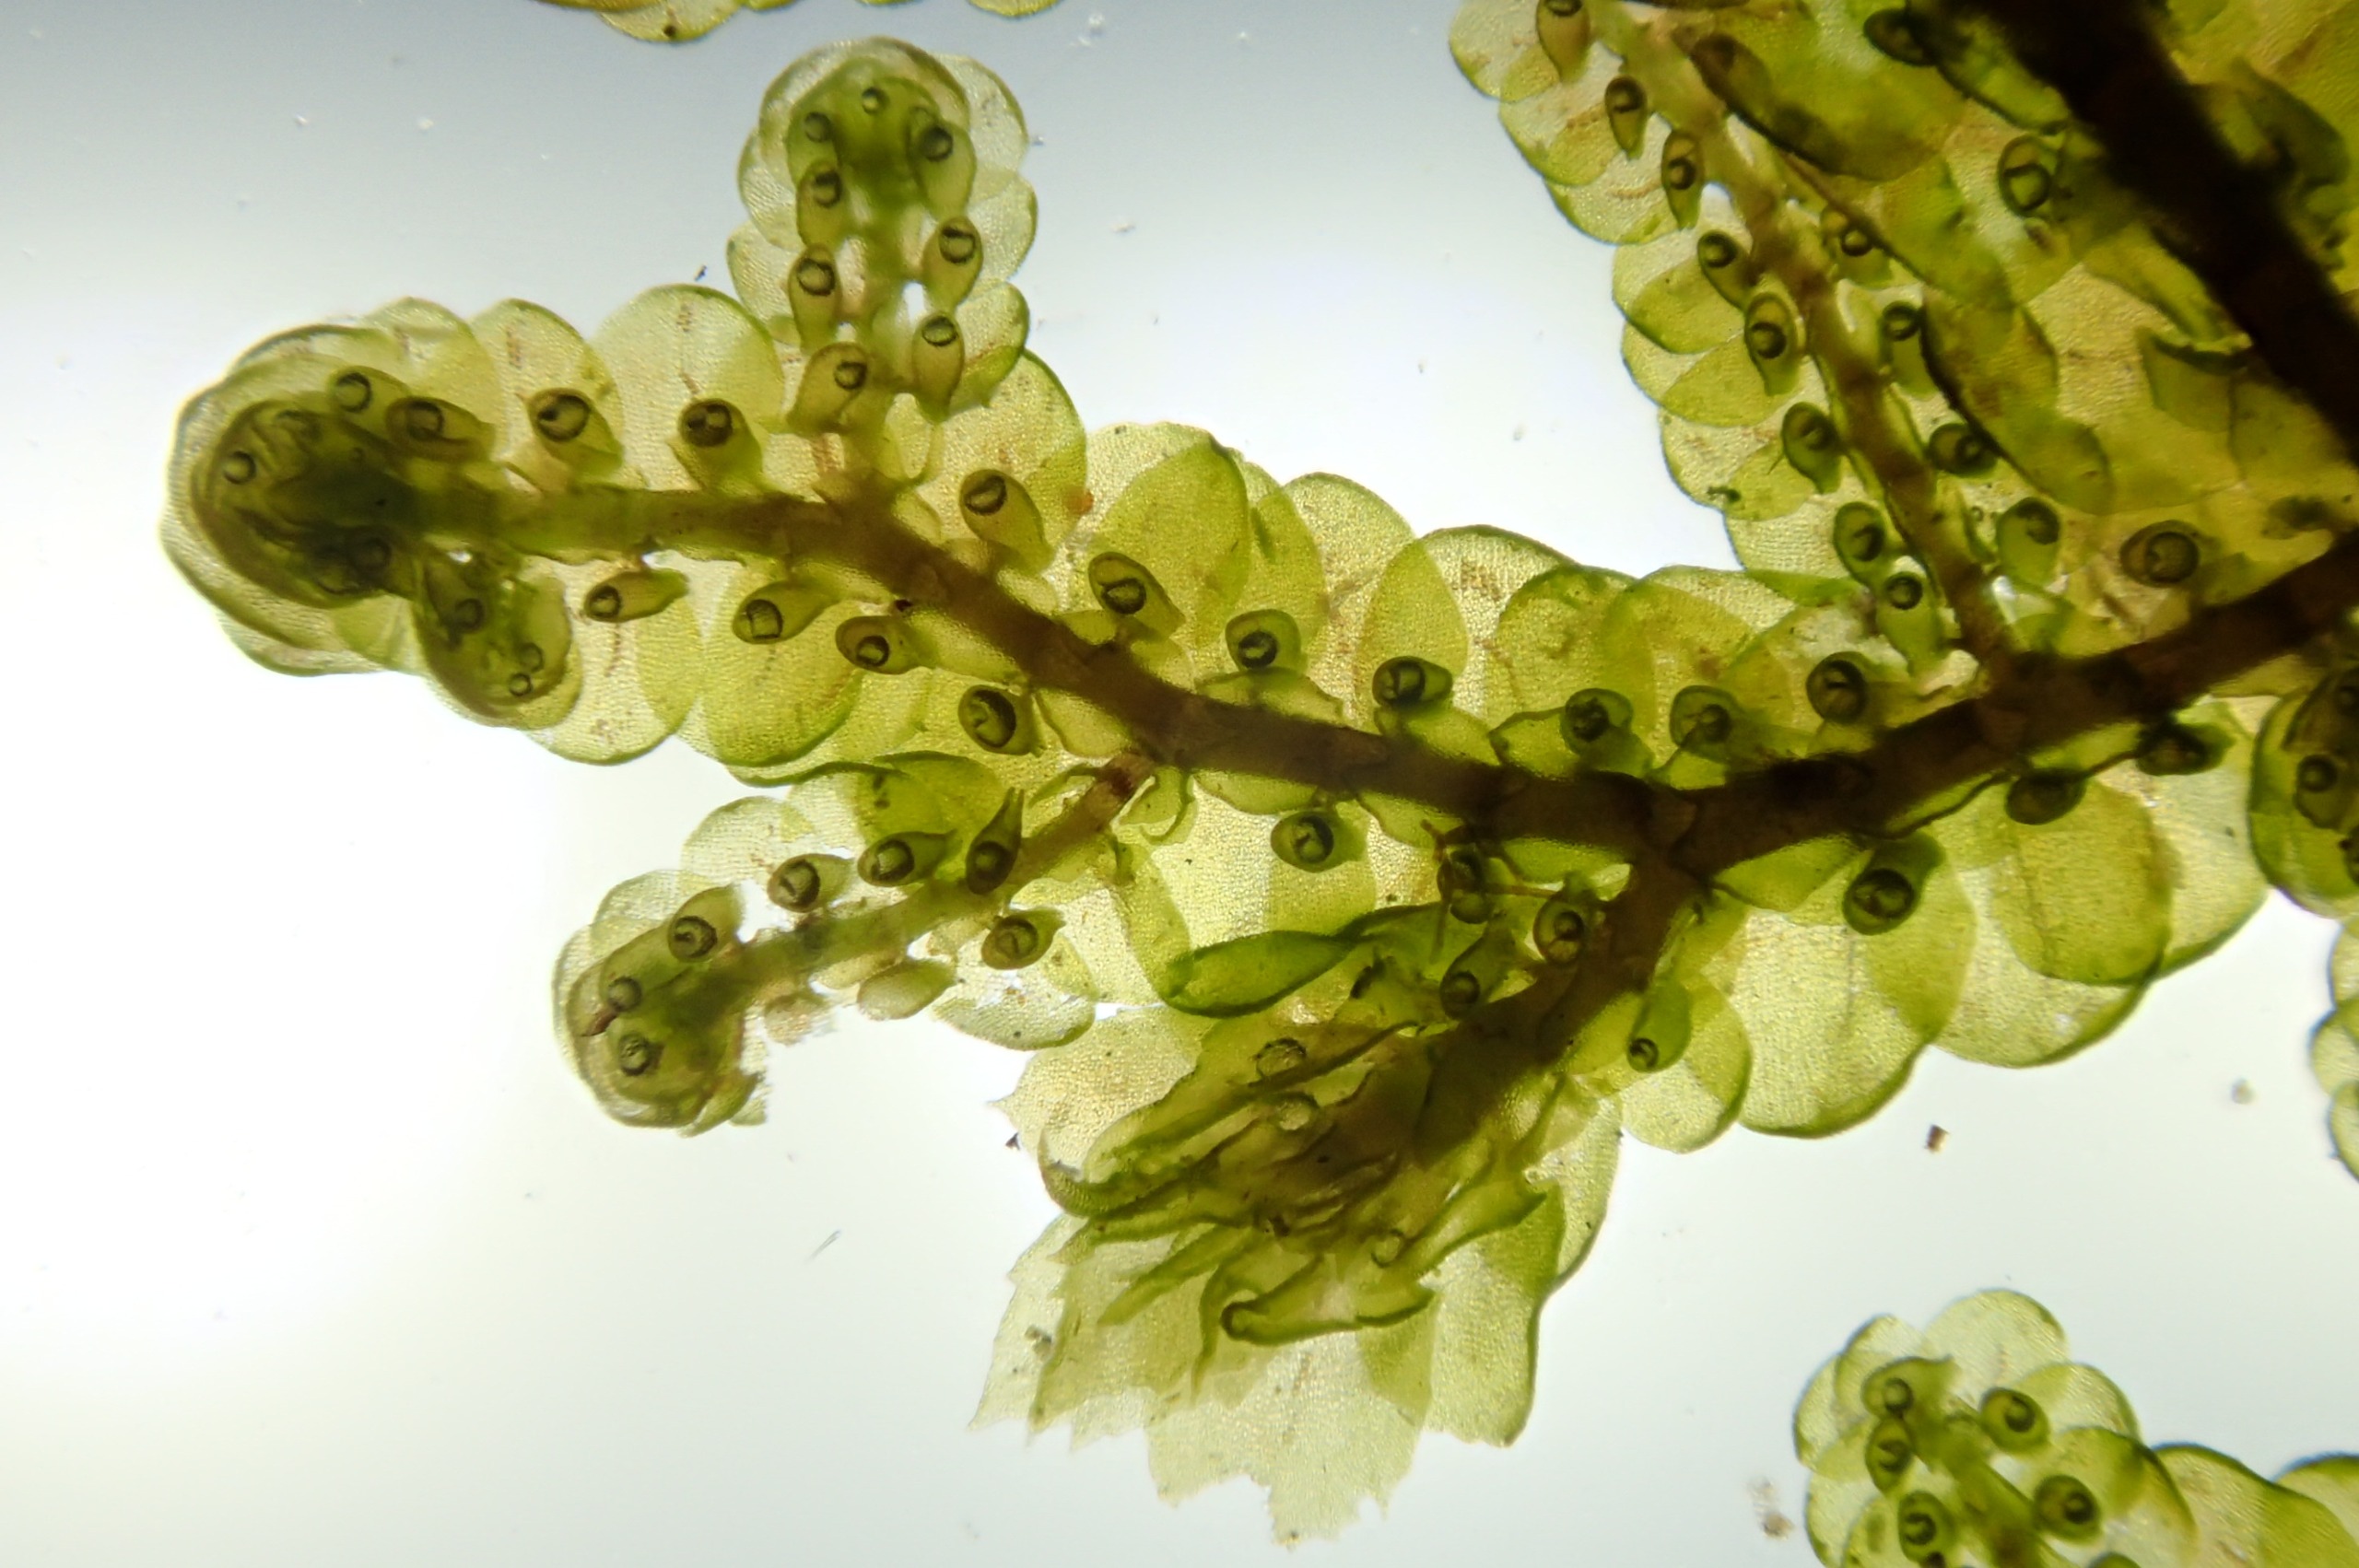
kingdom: Plantae
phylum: Marchantiophyta
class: Jungermanniopsida
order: Porellales
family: Frullaniaceae
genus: Frullania
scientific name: Frullania tamarisci
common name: Glinsende bronzemos
